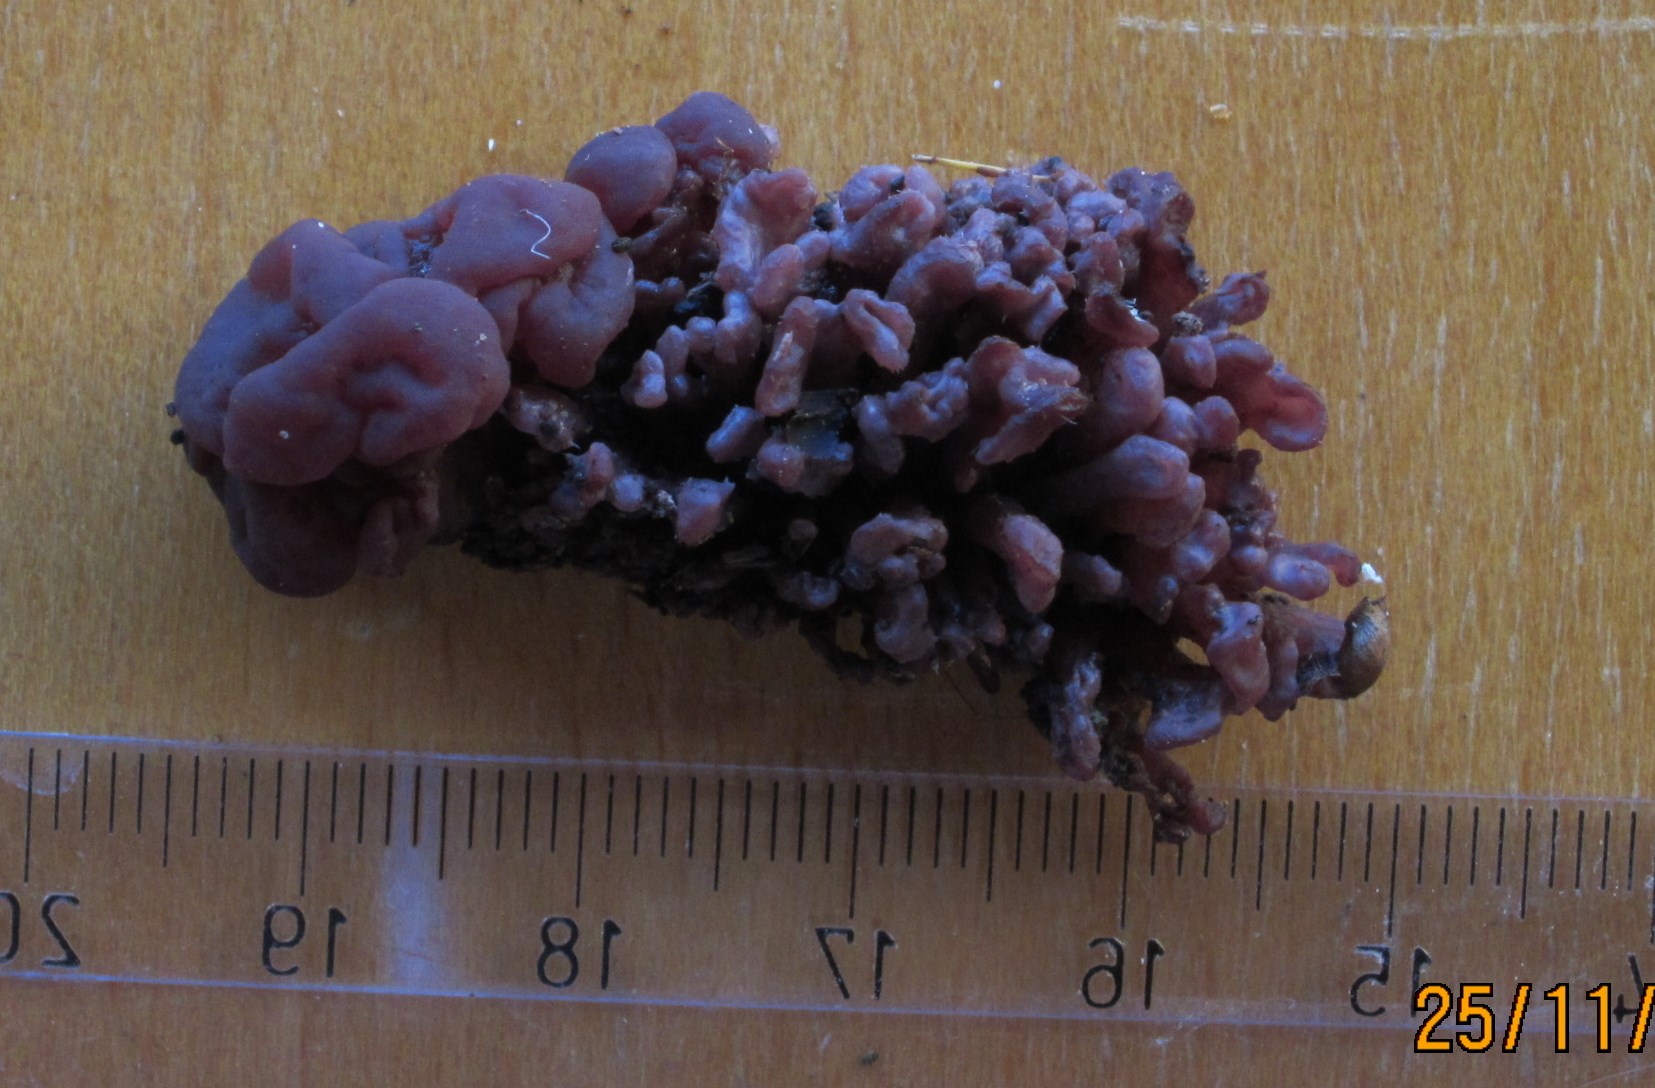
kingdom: Fungi
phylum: Ascomycota
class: Leotiomycetes
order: Helotiales
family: Gelatinodiscaceae
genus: Ascocoryne
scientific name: Ascocoryne sarcoides
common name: rødlilla sejskive
